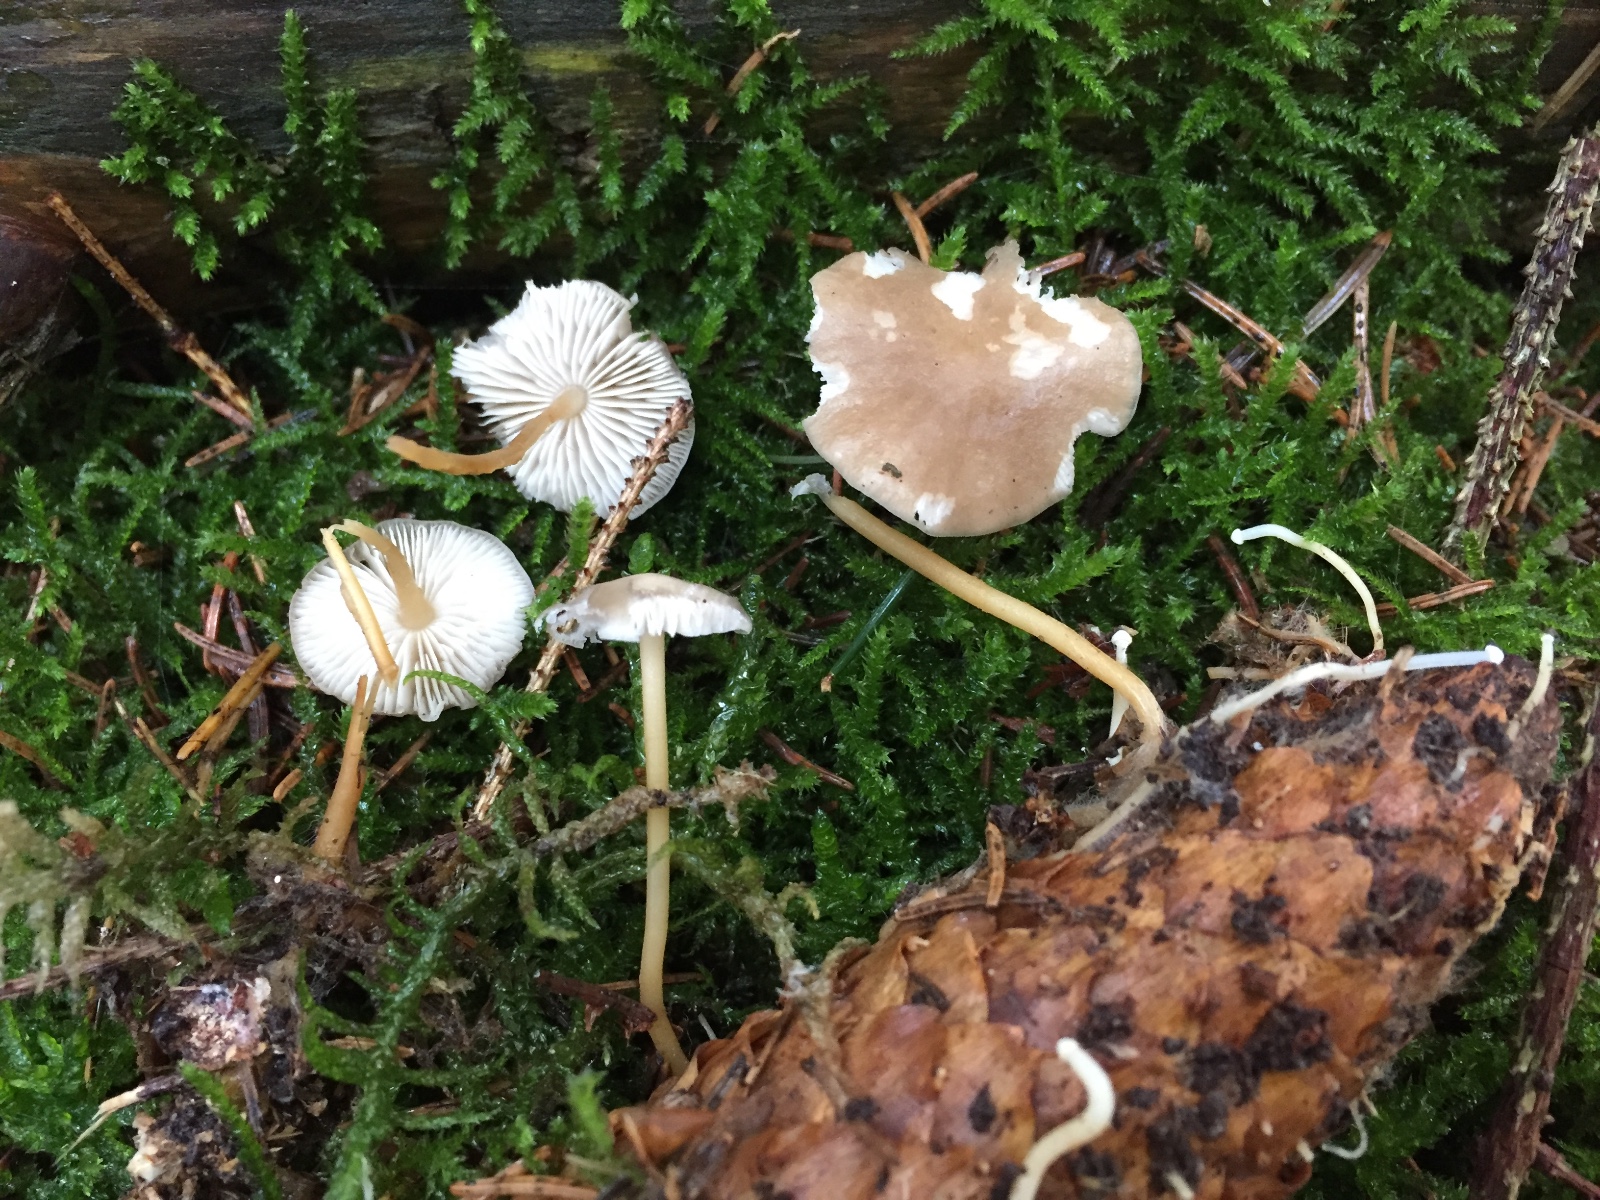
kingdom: Fungi
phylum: Basidiomycota
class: Agaricomycetes
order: Agaricales
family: Physalacriaceae
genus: Strobilurus
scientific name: Strobilurus esculentus
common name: gran-koglehat
